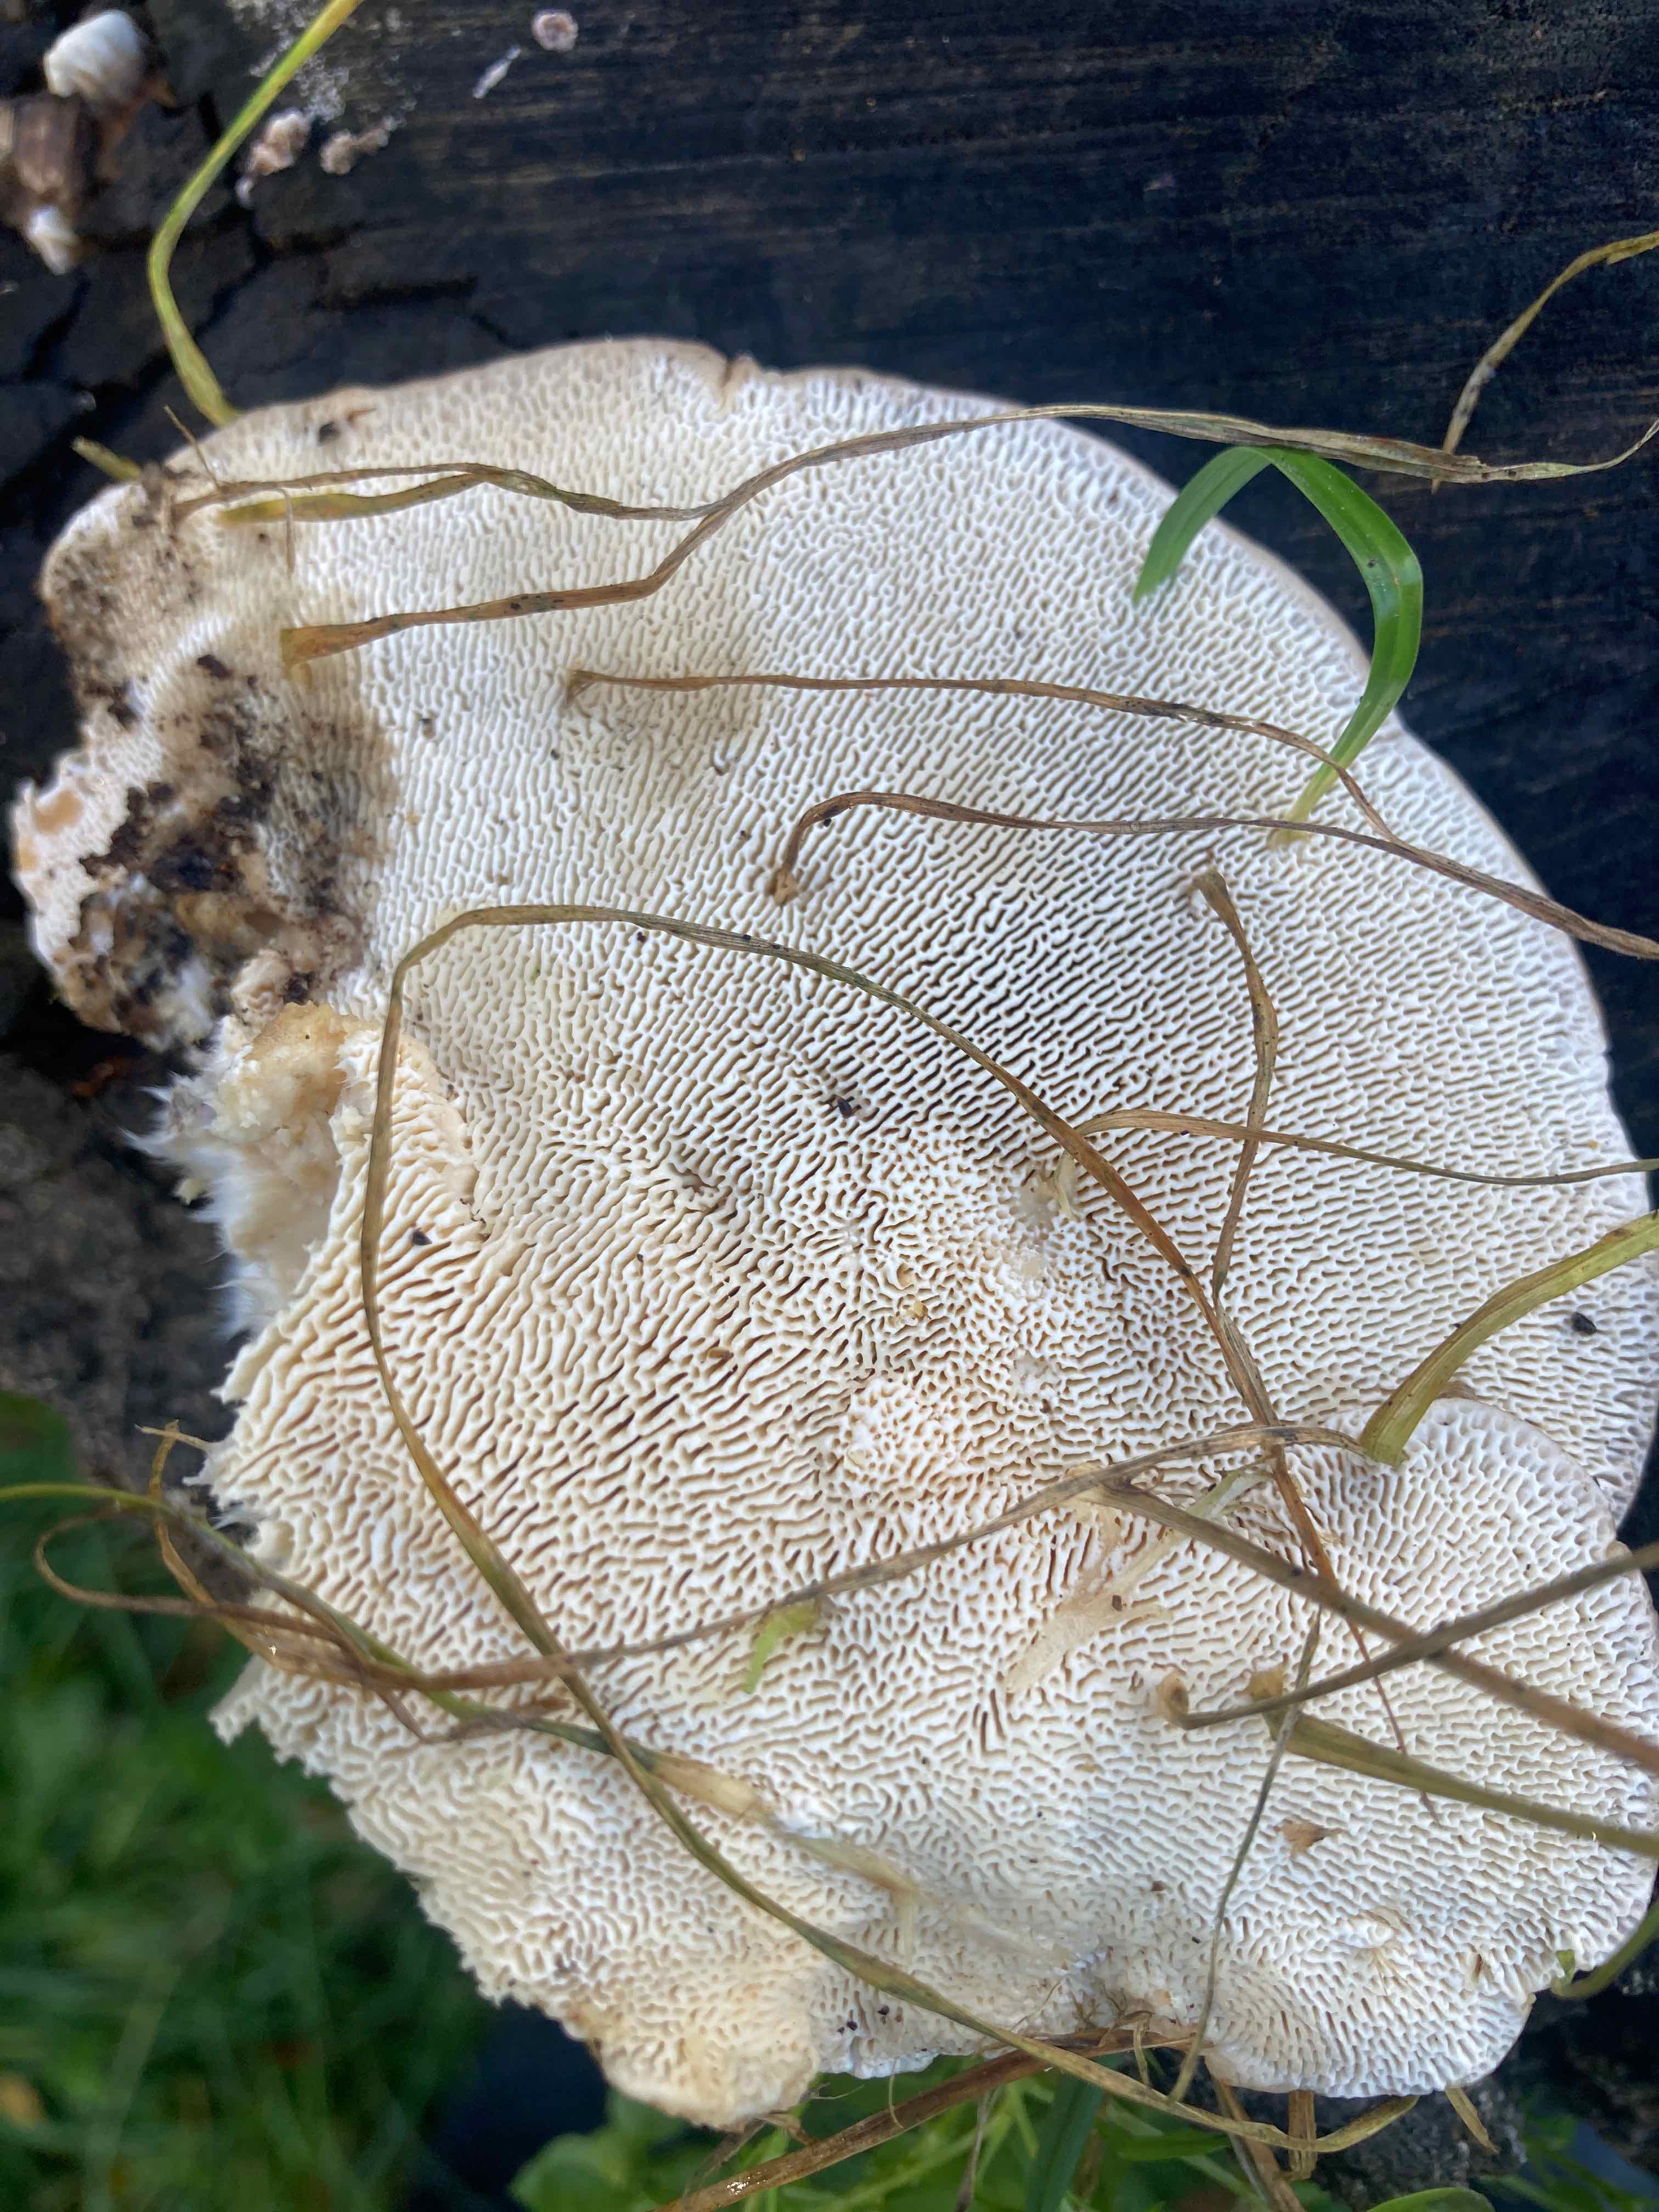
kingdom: Fungi
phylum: Basidiomycota
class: Agaricomycetes
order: Polyporales
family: Polyporaceae
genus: Trametes
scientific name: Trametes gibbosa
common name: puklet læderporesvamp
